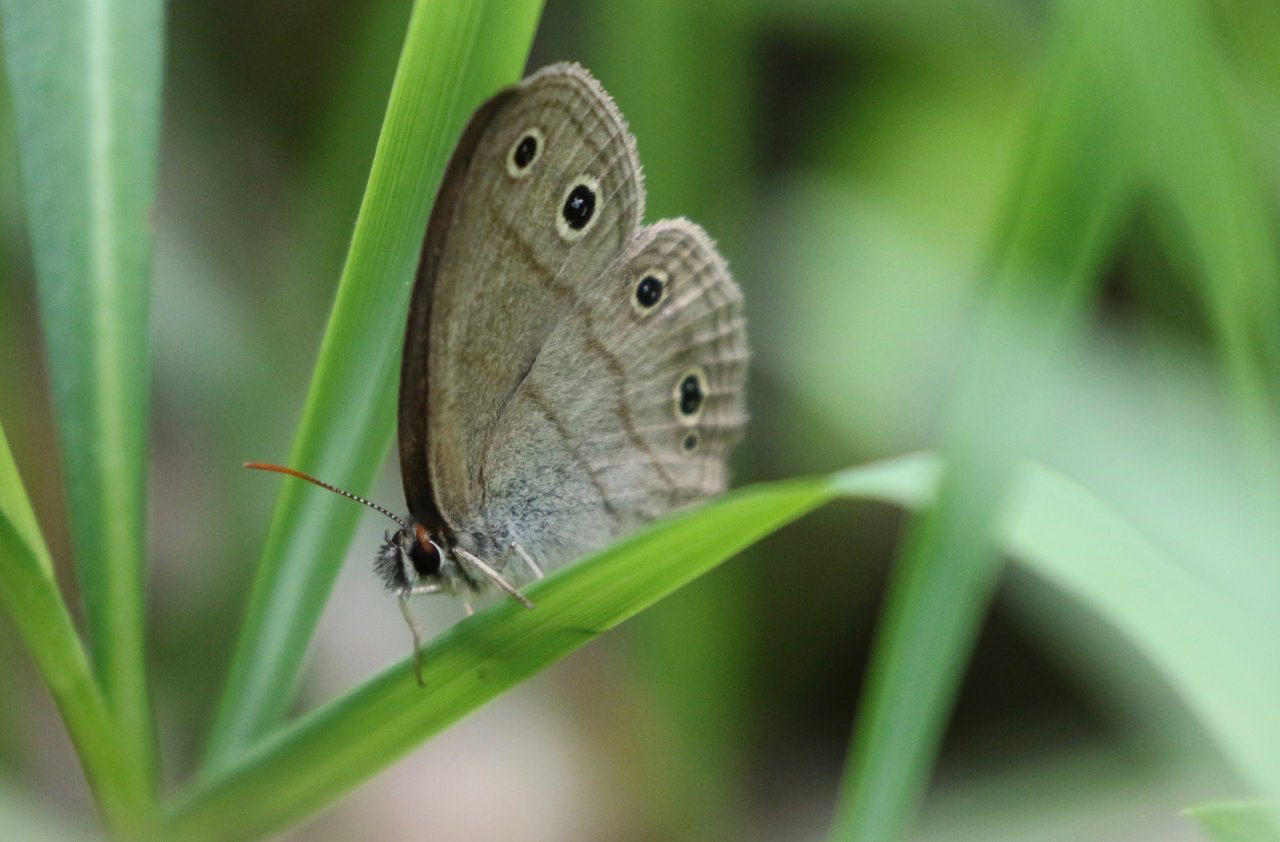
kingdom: Animalia
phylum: Arthropoda
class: Insecta
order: Lepidoptera
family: Nymphalidae
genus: Euptychia
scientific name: Euptychia cymela
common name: Little Wood Satyr
